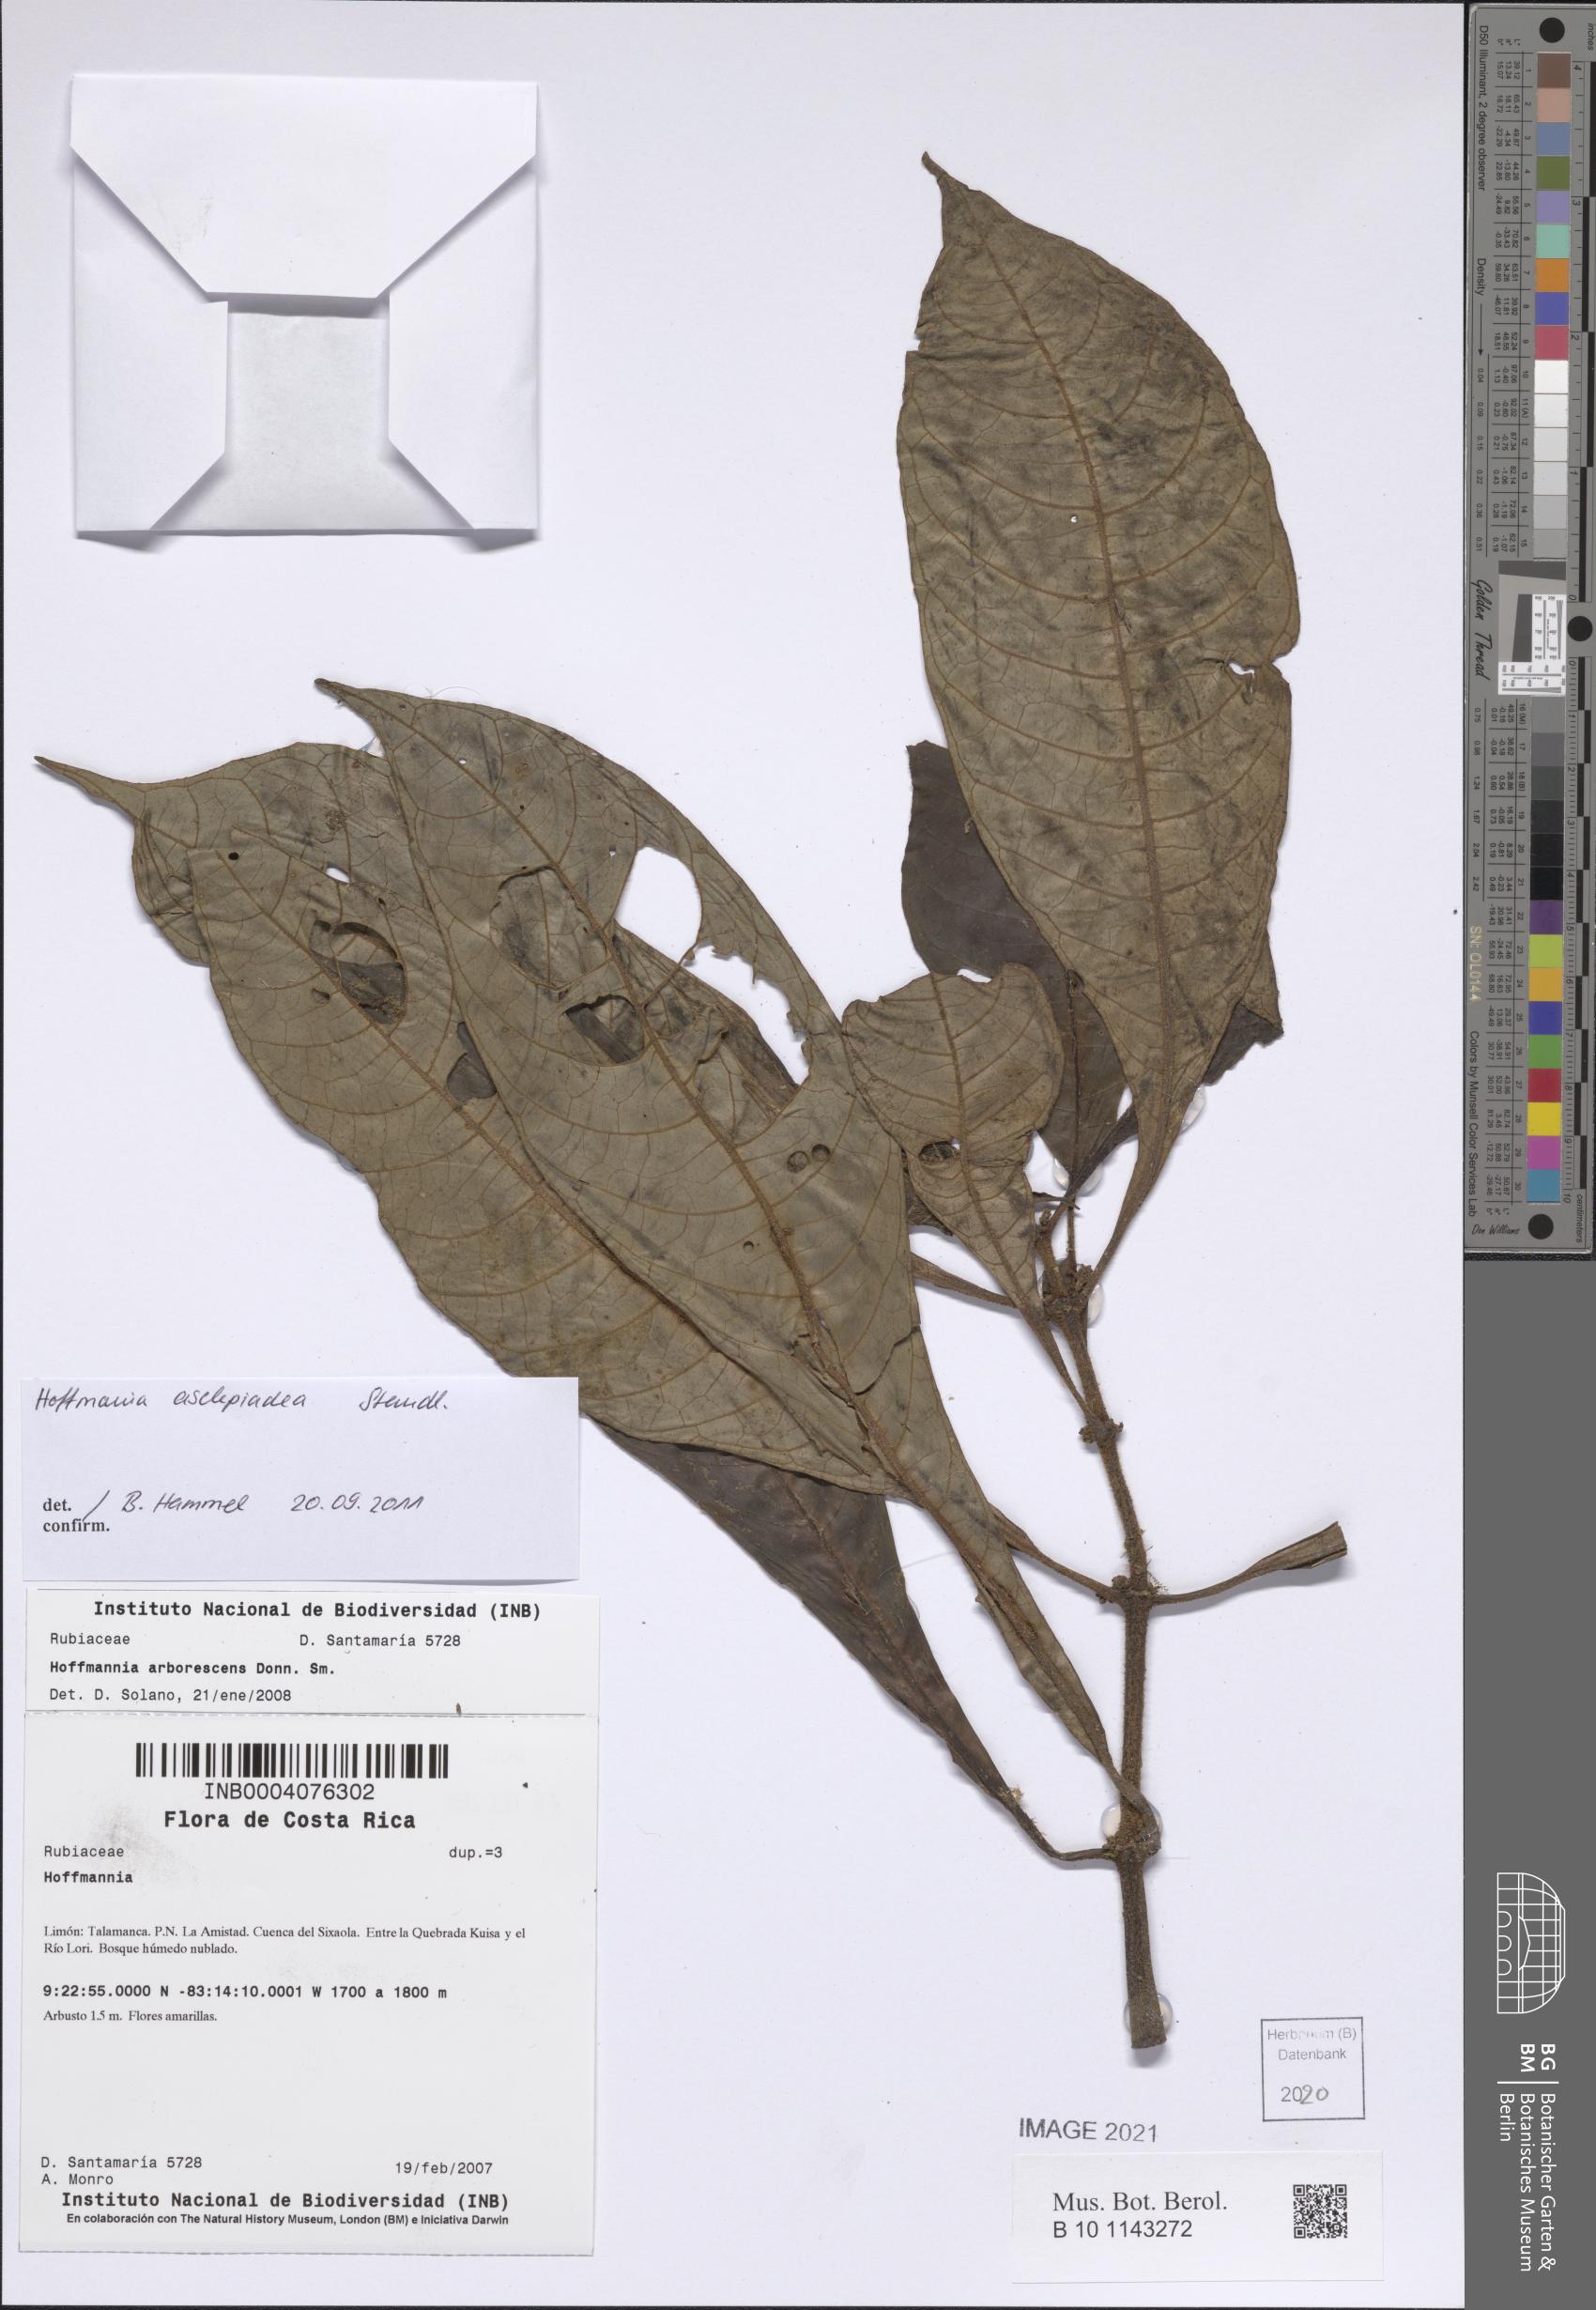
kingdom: Plantae
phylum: Tracheophyta
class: Magnoliopsida
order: Gentianales
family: Rubiaceae
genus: Hoffmannia
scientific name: Hoffmannia asclepiadea
